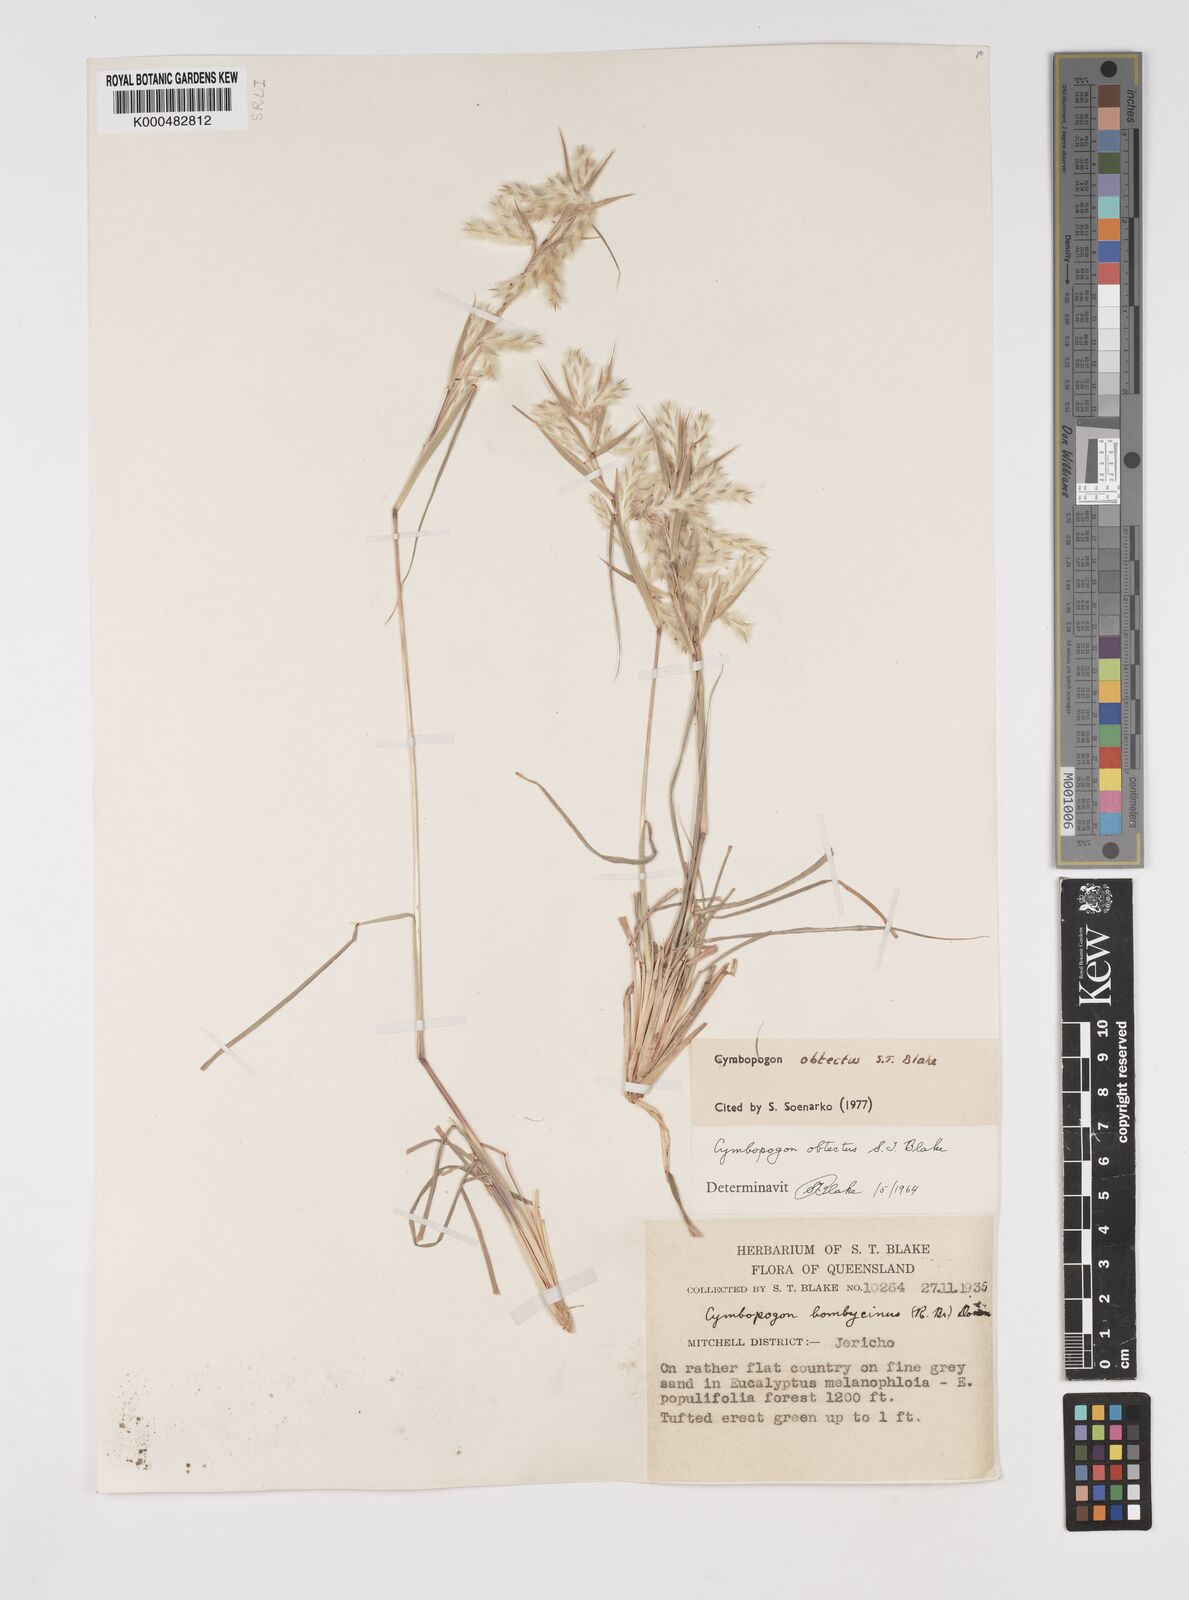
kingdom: Plantae
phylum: Tracheophyta
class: Liliopsida
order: Poales
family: Poaceae
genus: Cymbopogon
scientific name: Cymbopogon obtectus
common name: Silky heads
